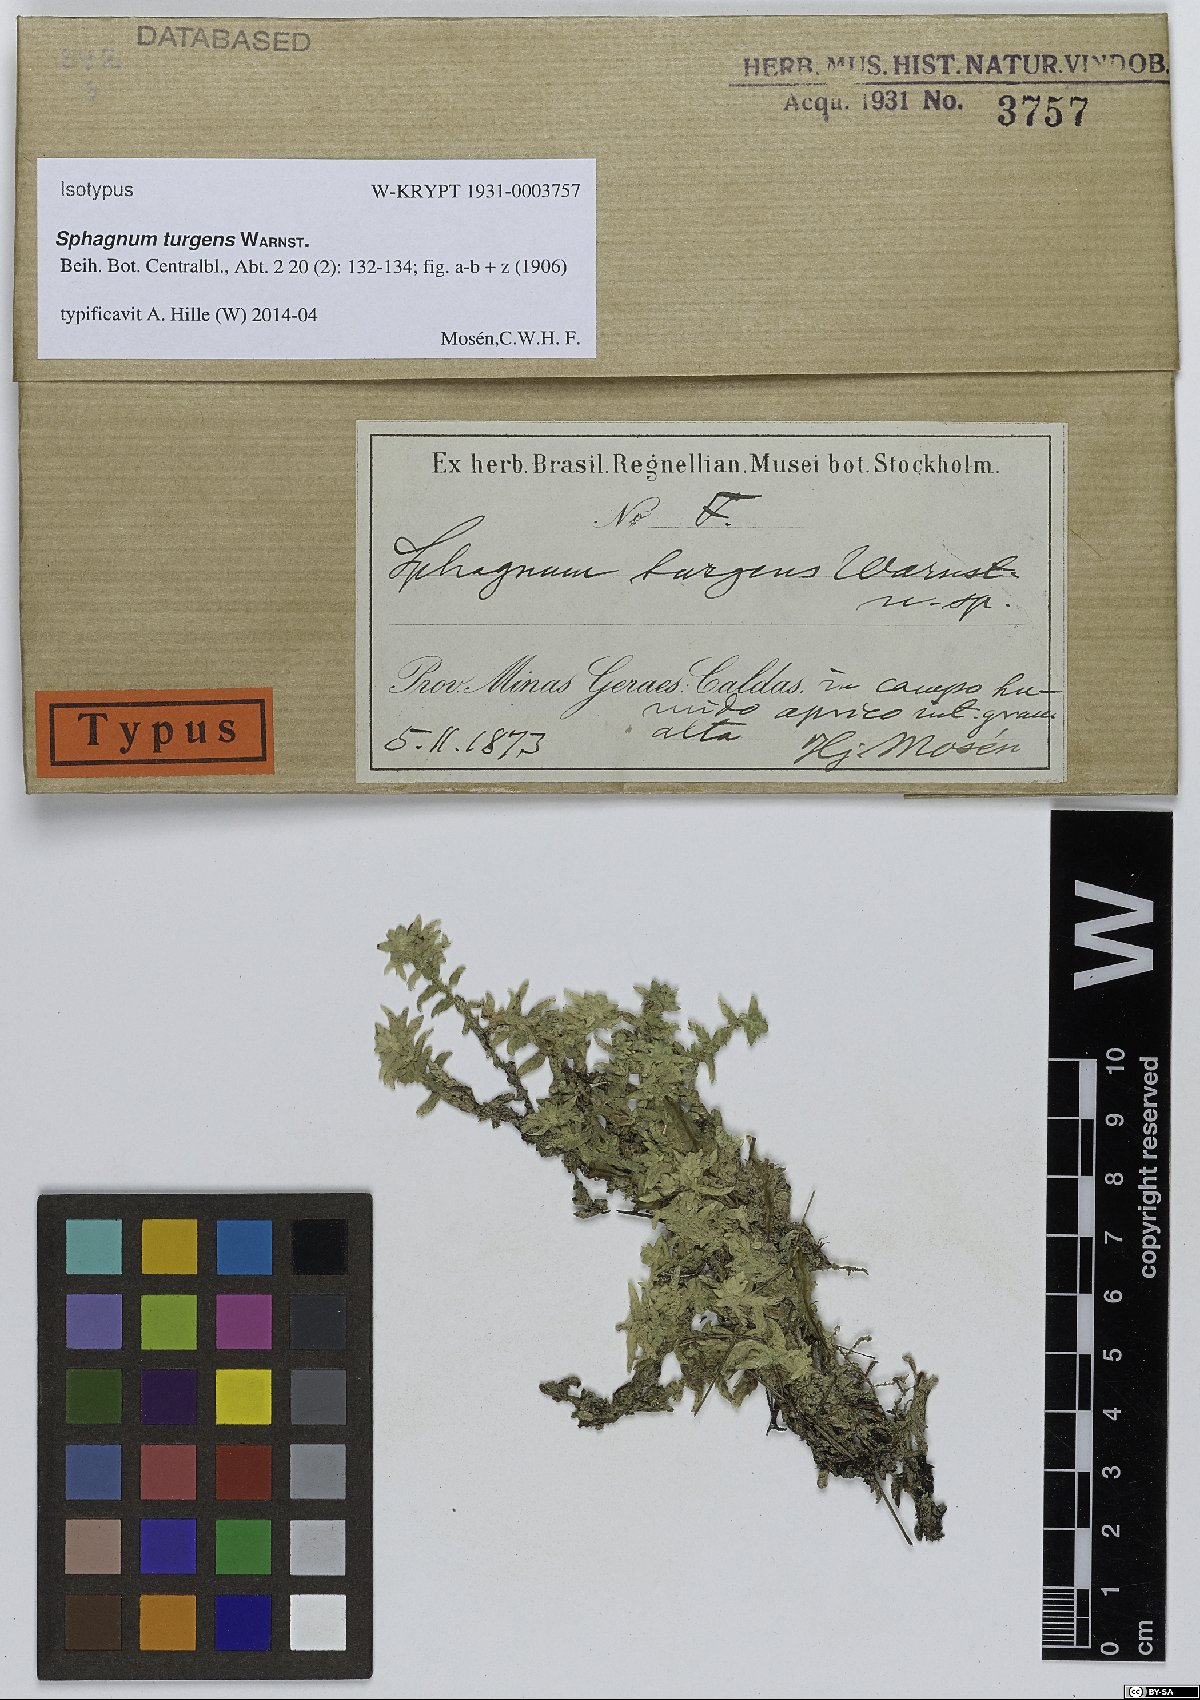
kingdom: Plantae
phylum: Bryophyta
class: Sphagnopsida
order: Sphagnales
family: Sphagnaceae
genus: Sphagnum
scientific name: Sphagnum turgens
